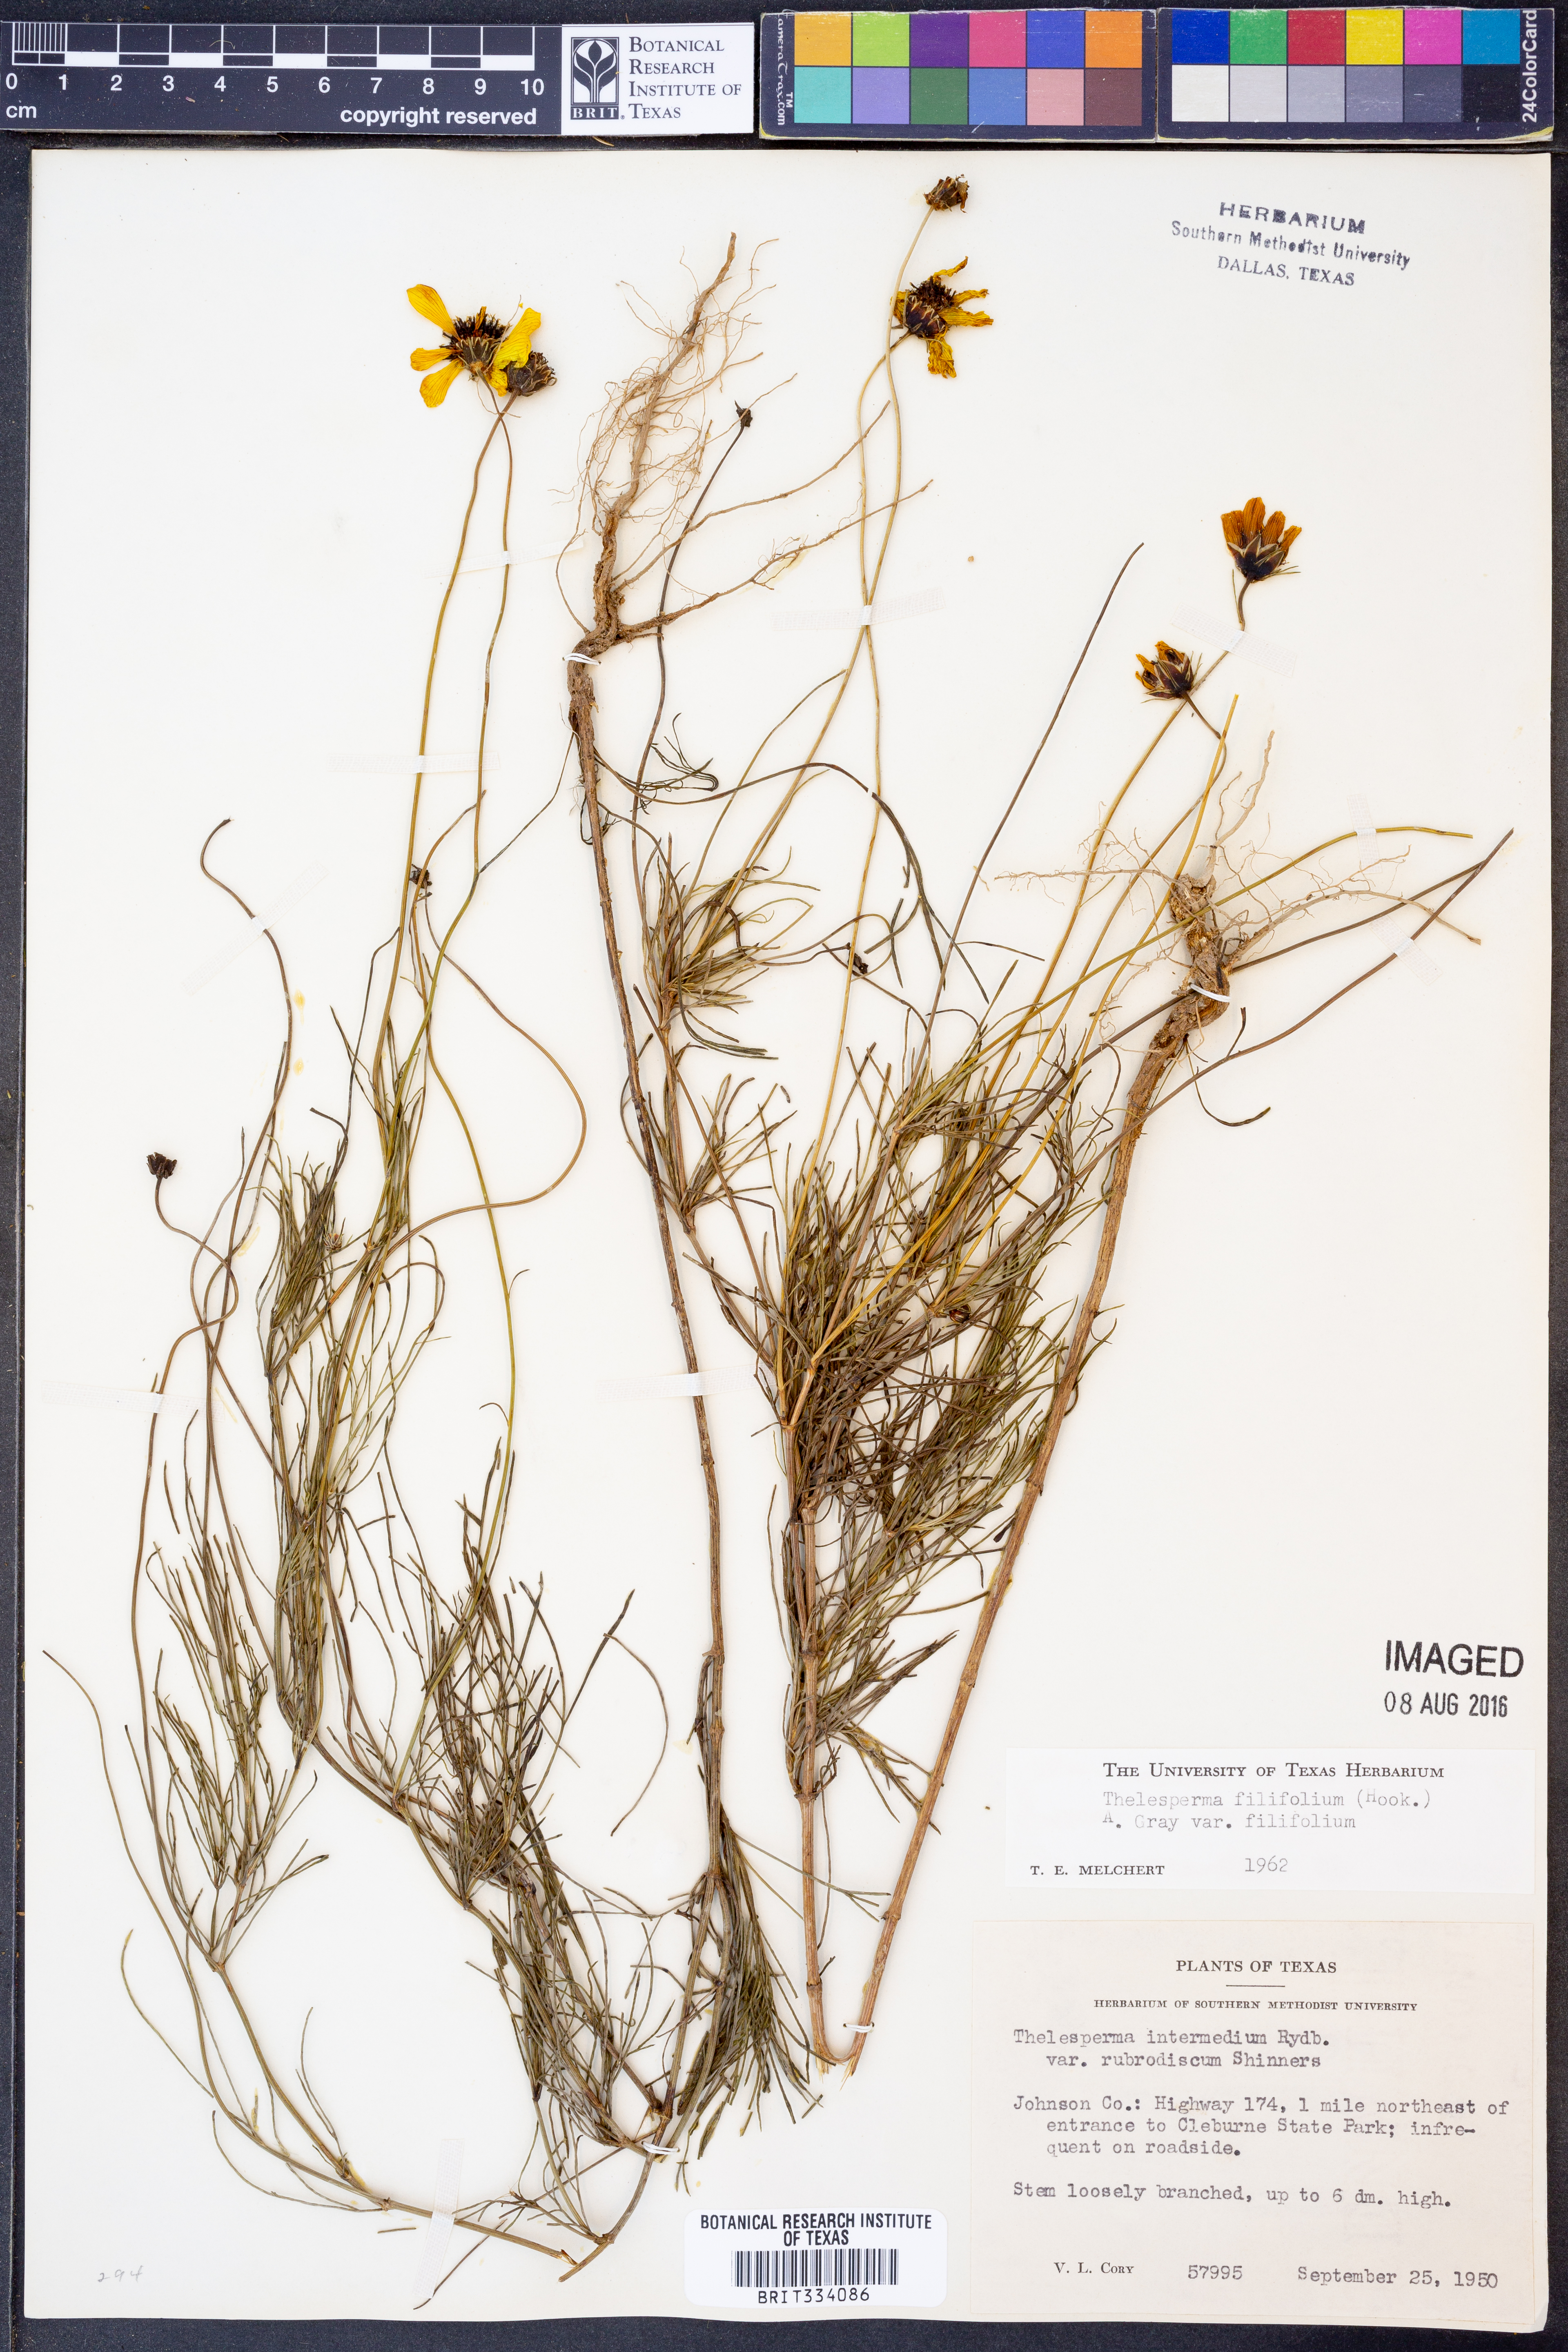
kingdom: Plantae
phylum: Tracheophyta
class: Magnoliopsida
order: Asterales
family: Asteraceae
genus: Thelesperma
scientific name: Thelesperma filifolium
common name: Stiff greenthread
